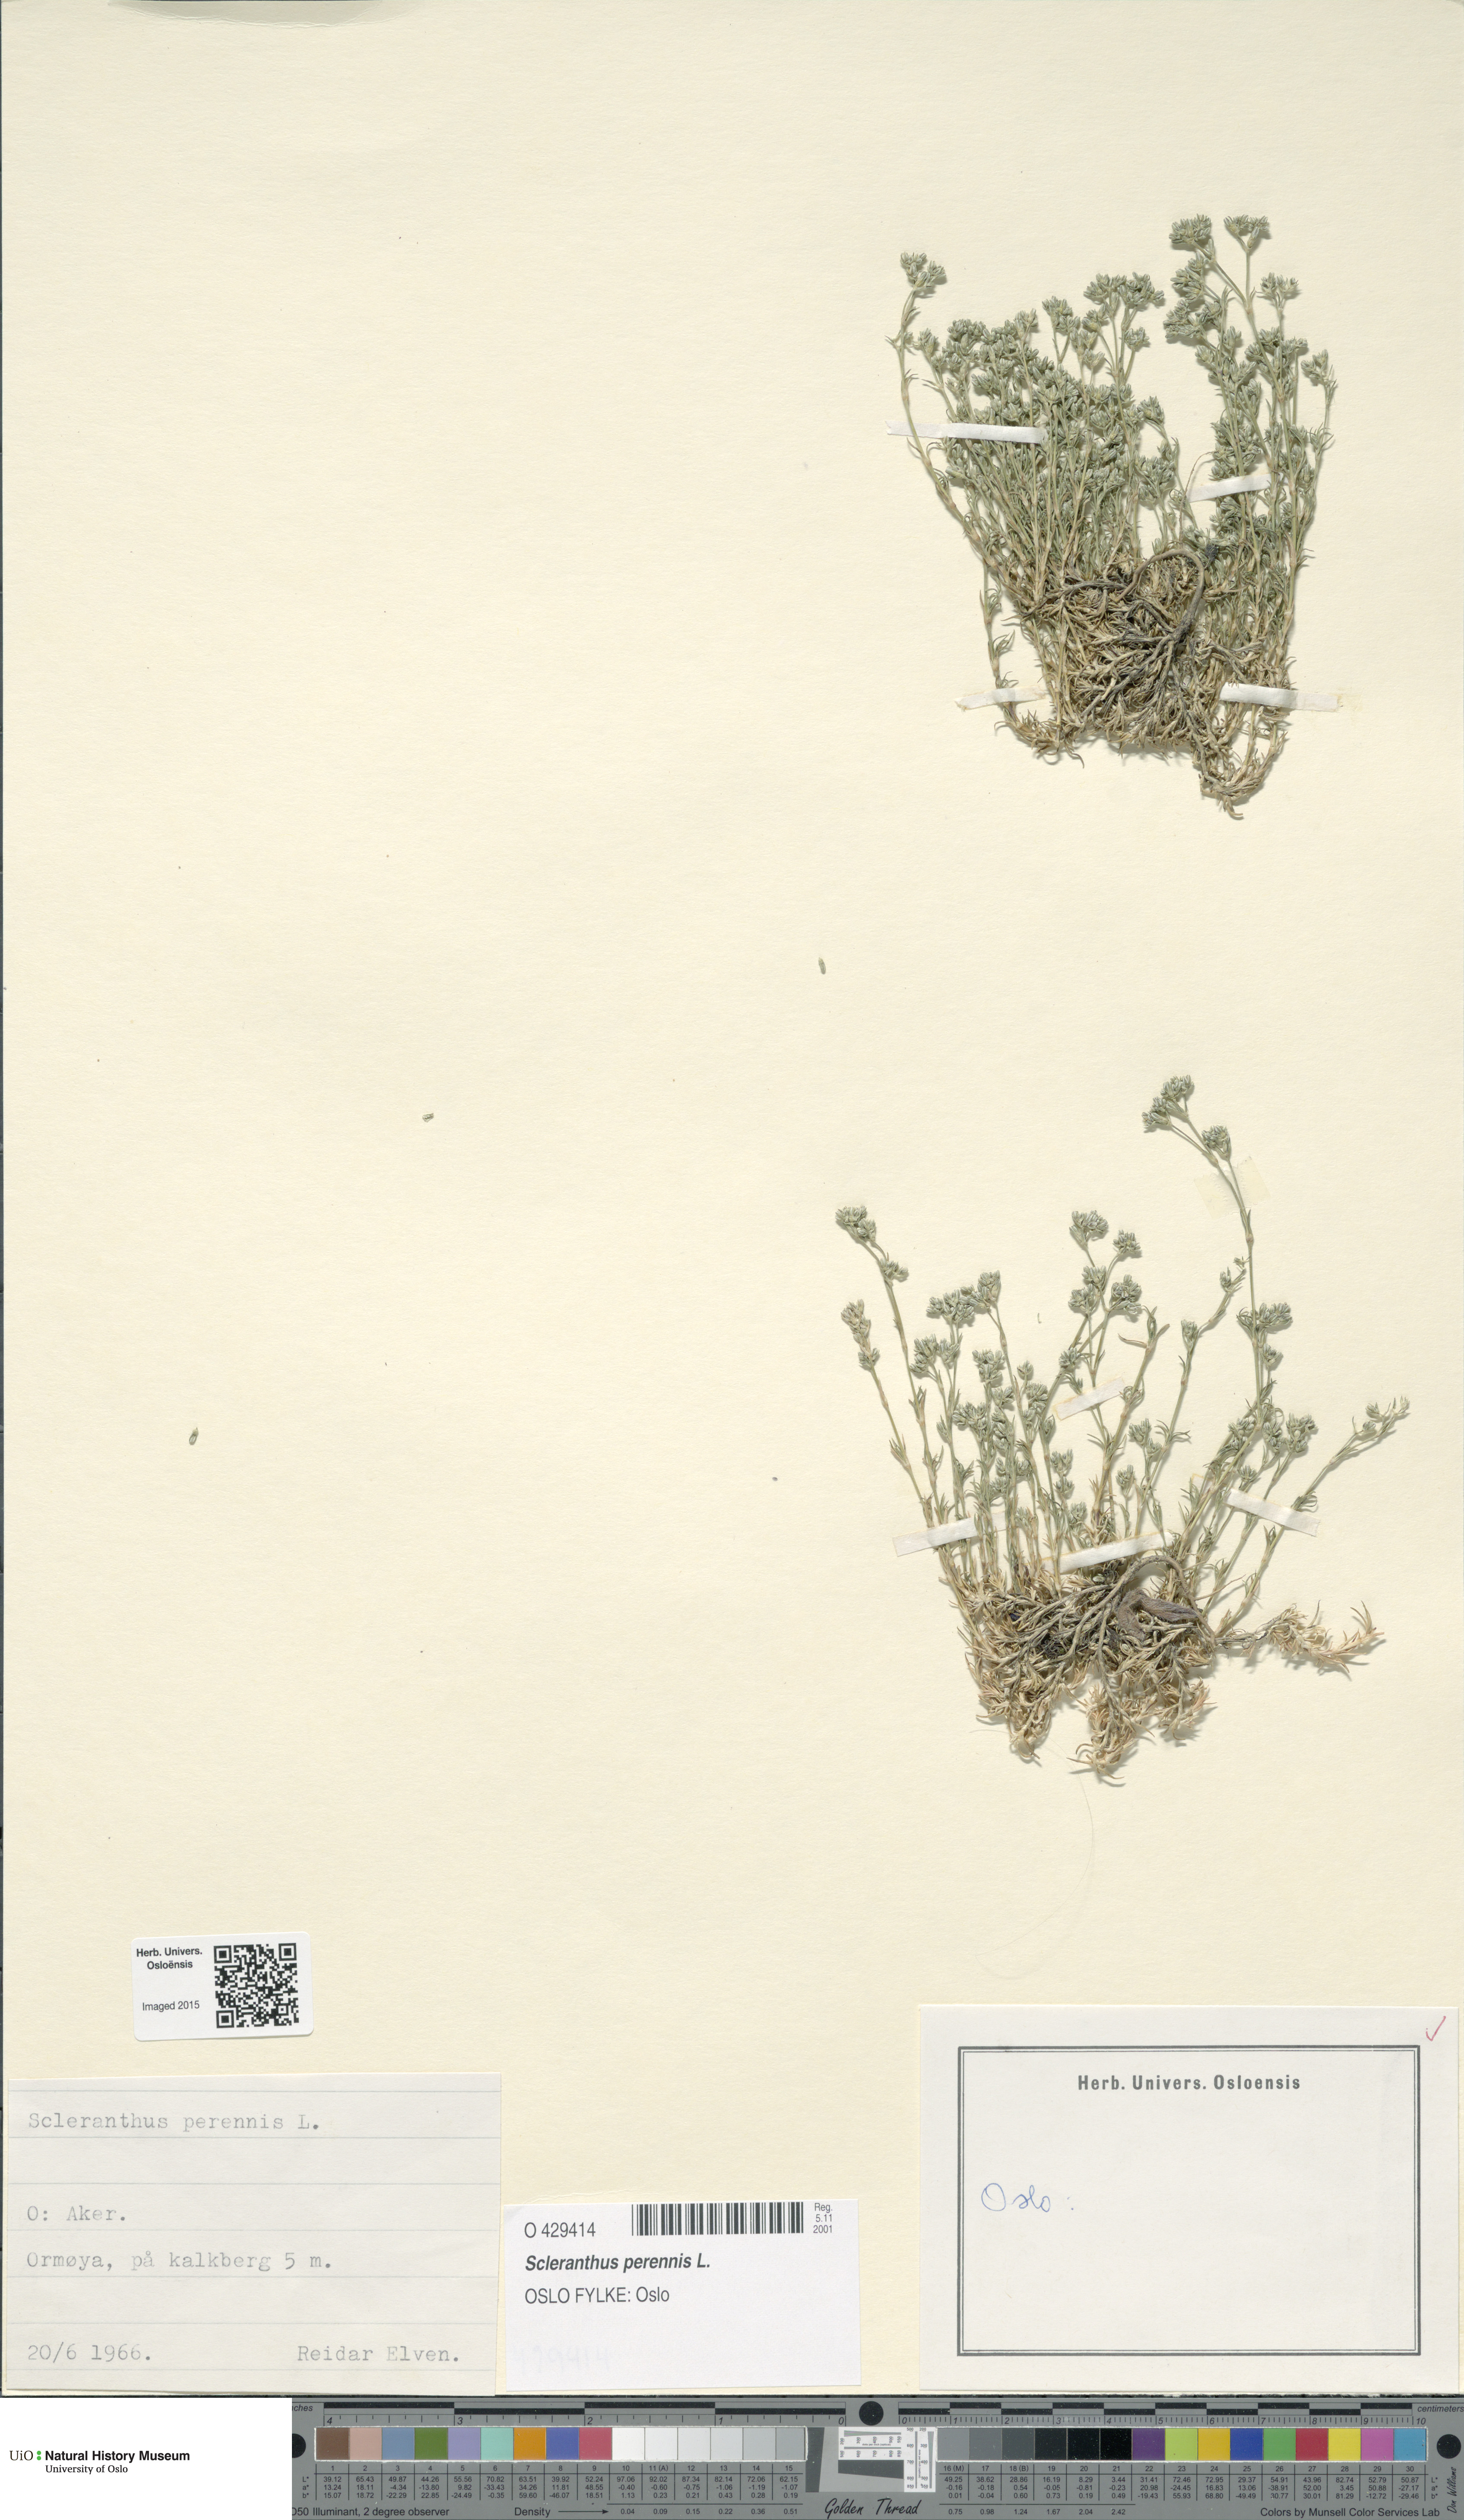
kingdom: Plantae
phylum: Tracheophyta
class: Magnoliopsida
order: Caryophyllales
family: Caryophyllaceae
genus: Scleranthus
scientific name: Scleranthus perennis
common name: Perennial knawel
